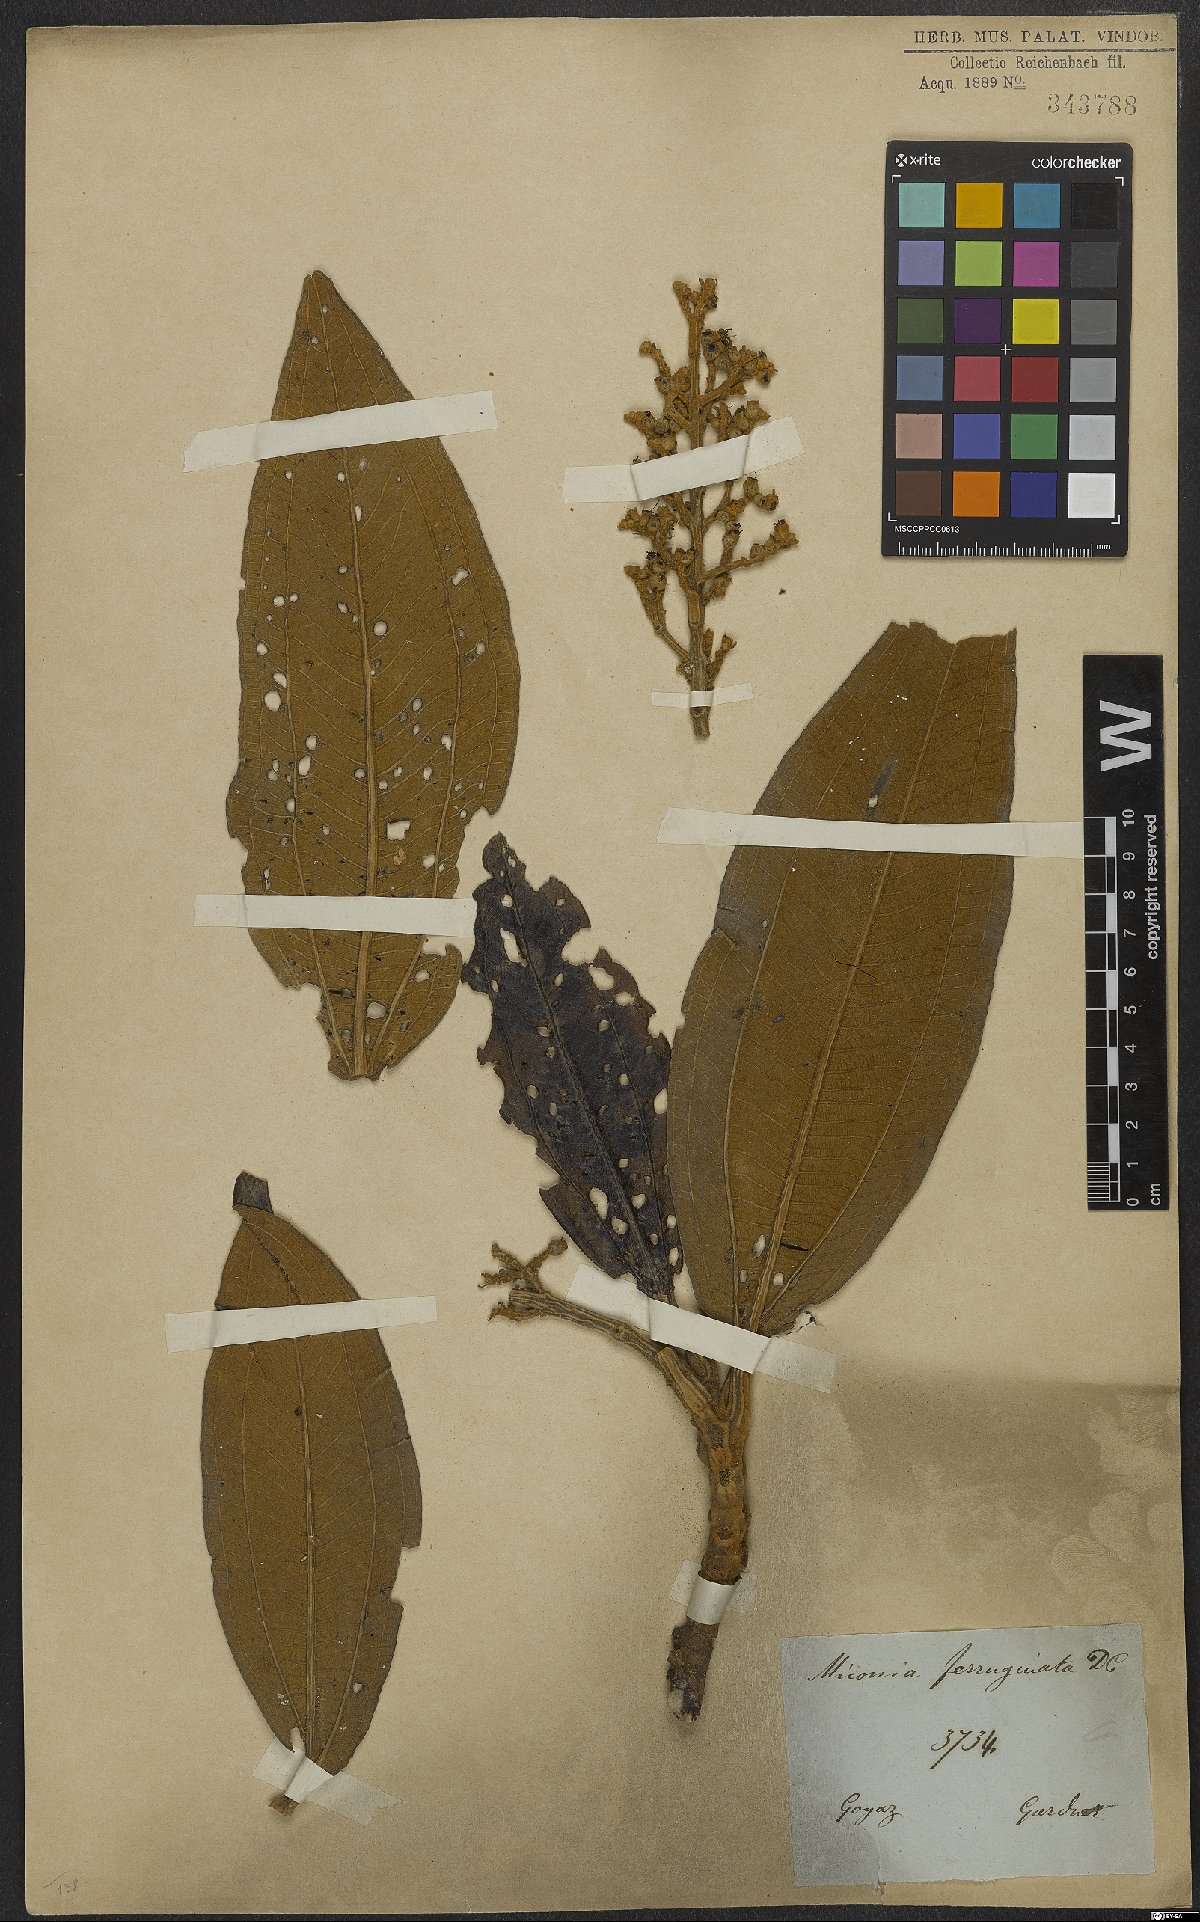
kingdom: Plantae
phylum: Tracheophyta
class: Magnoliopsida
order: Myrtales
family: Melastomataceae
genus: Miconia
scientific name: Miconia ferruginata
